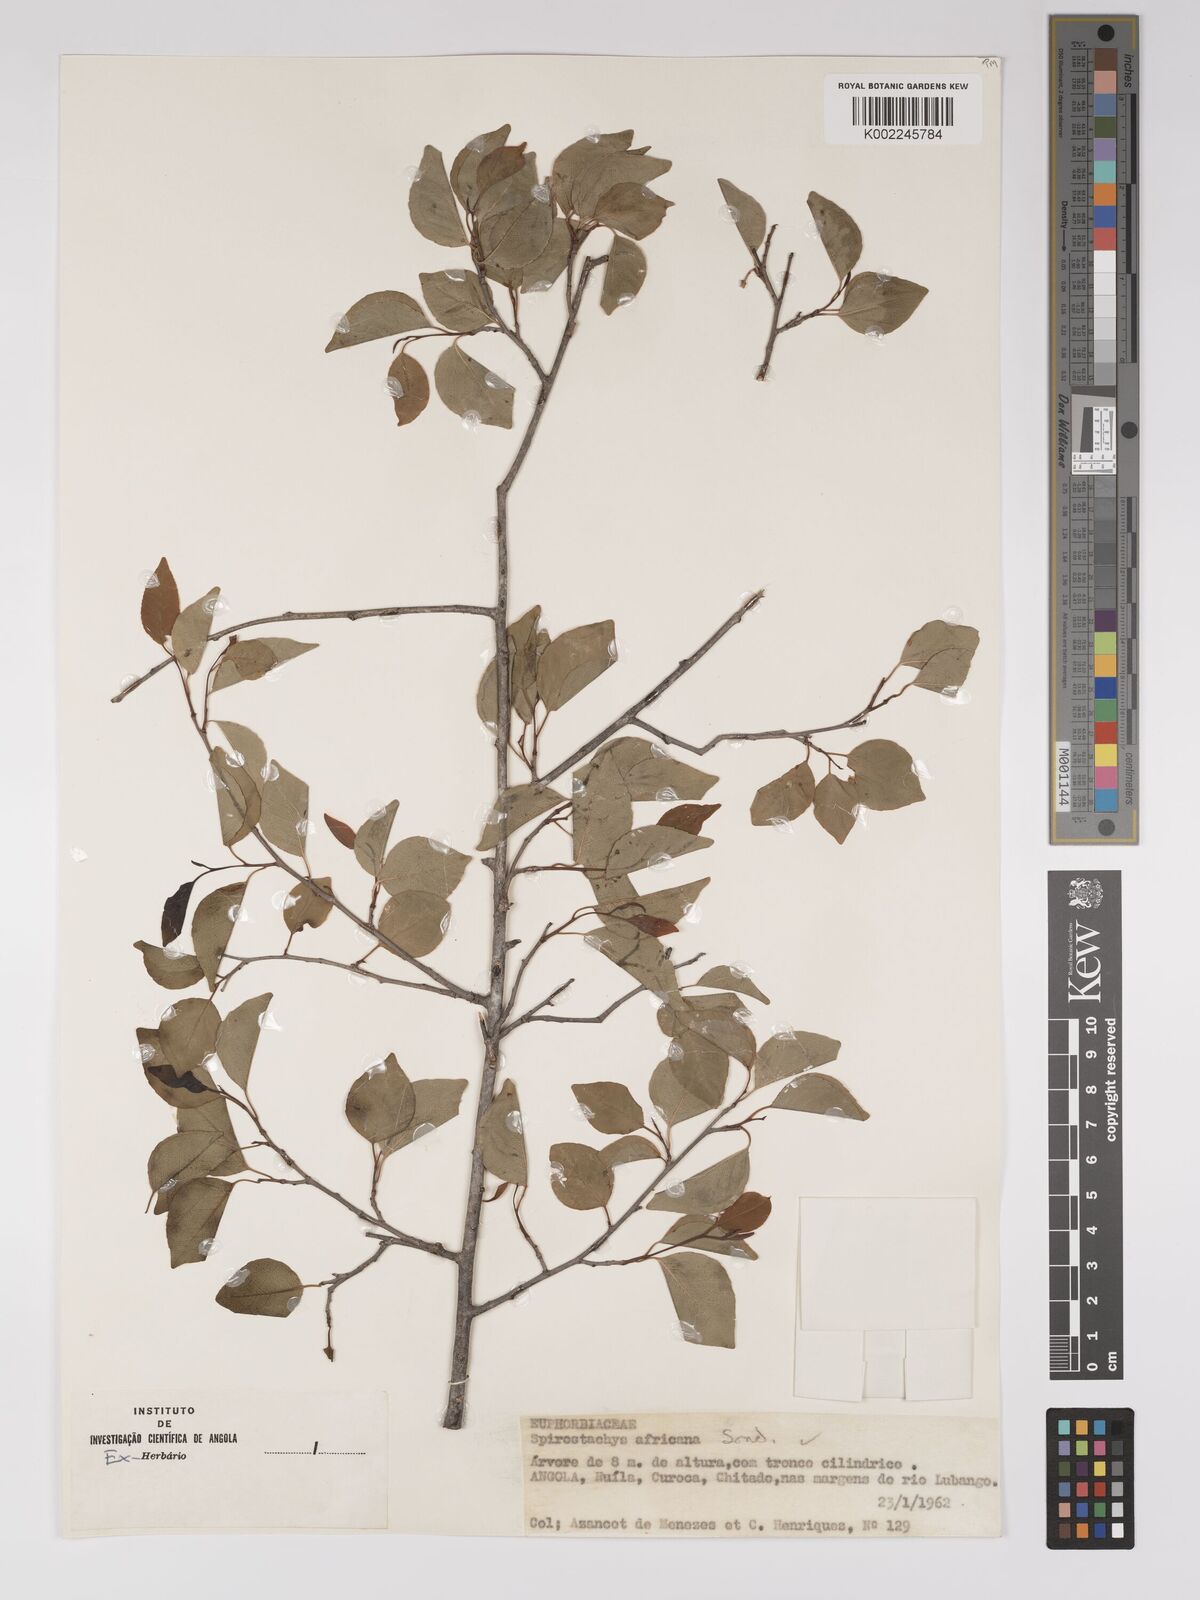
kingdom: Plantae
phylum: Tracheophyta
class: Magnoliopsida
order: Malpighiales
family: Euphorbiaceae
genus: Spirostachys
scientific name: Spirostachys africana
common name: Tamboti
